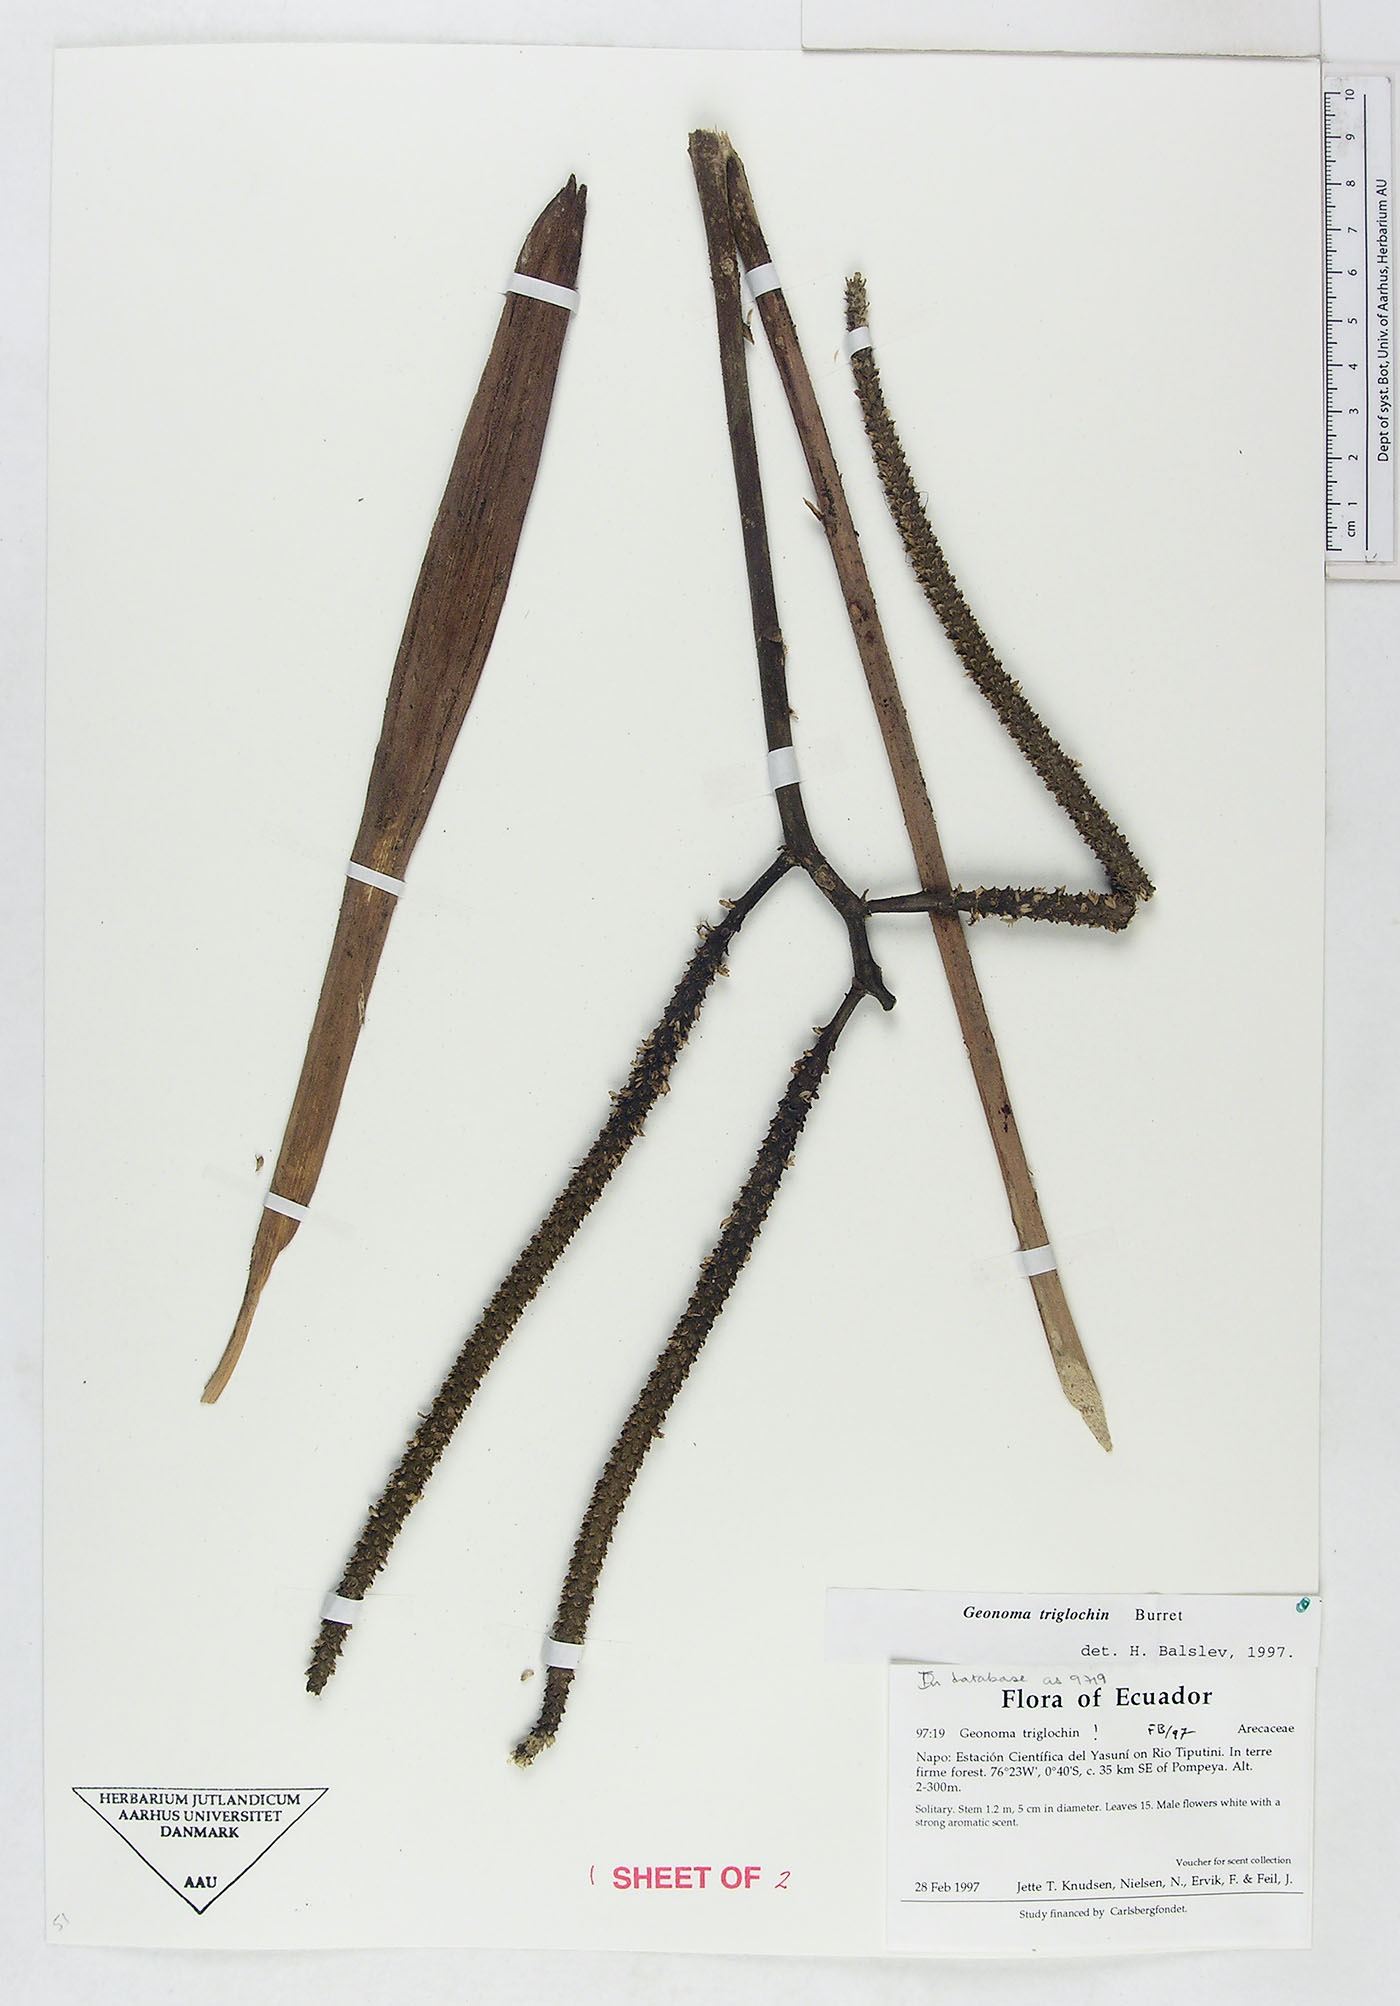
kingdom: Plantae
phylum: Tracheophyta
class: Liliopsida
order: Arecales
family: Arecaceae
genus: Geonoma
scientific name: Geonoma triglochin
